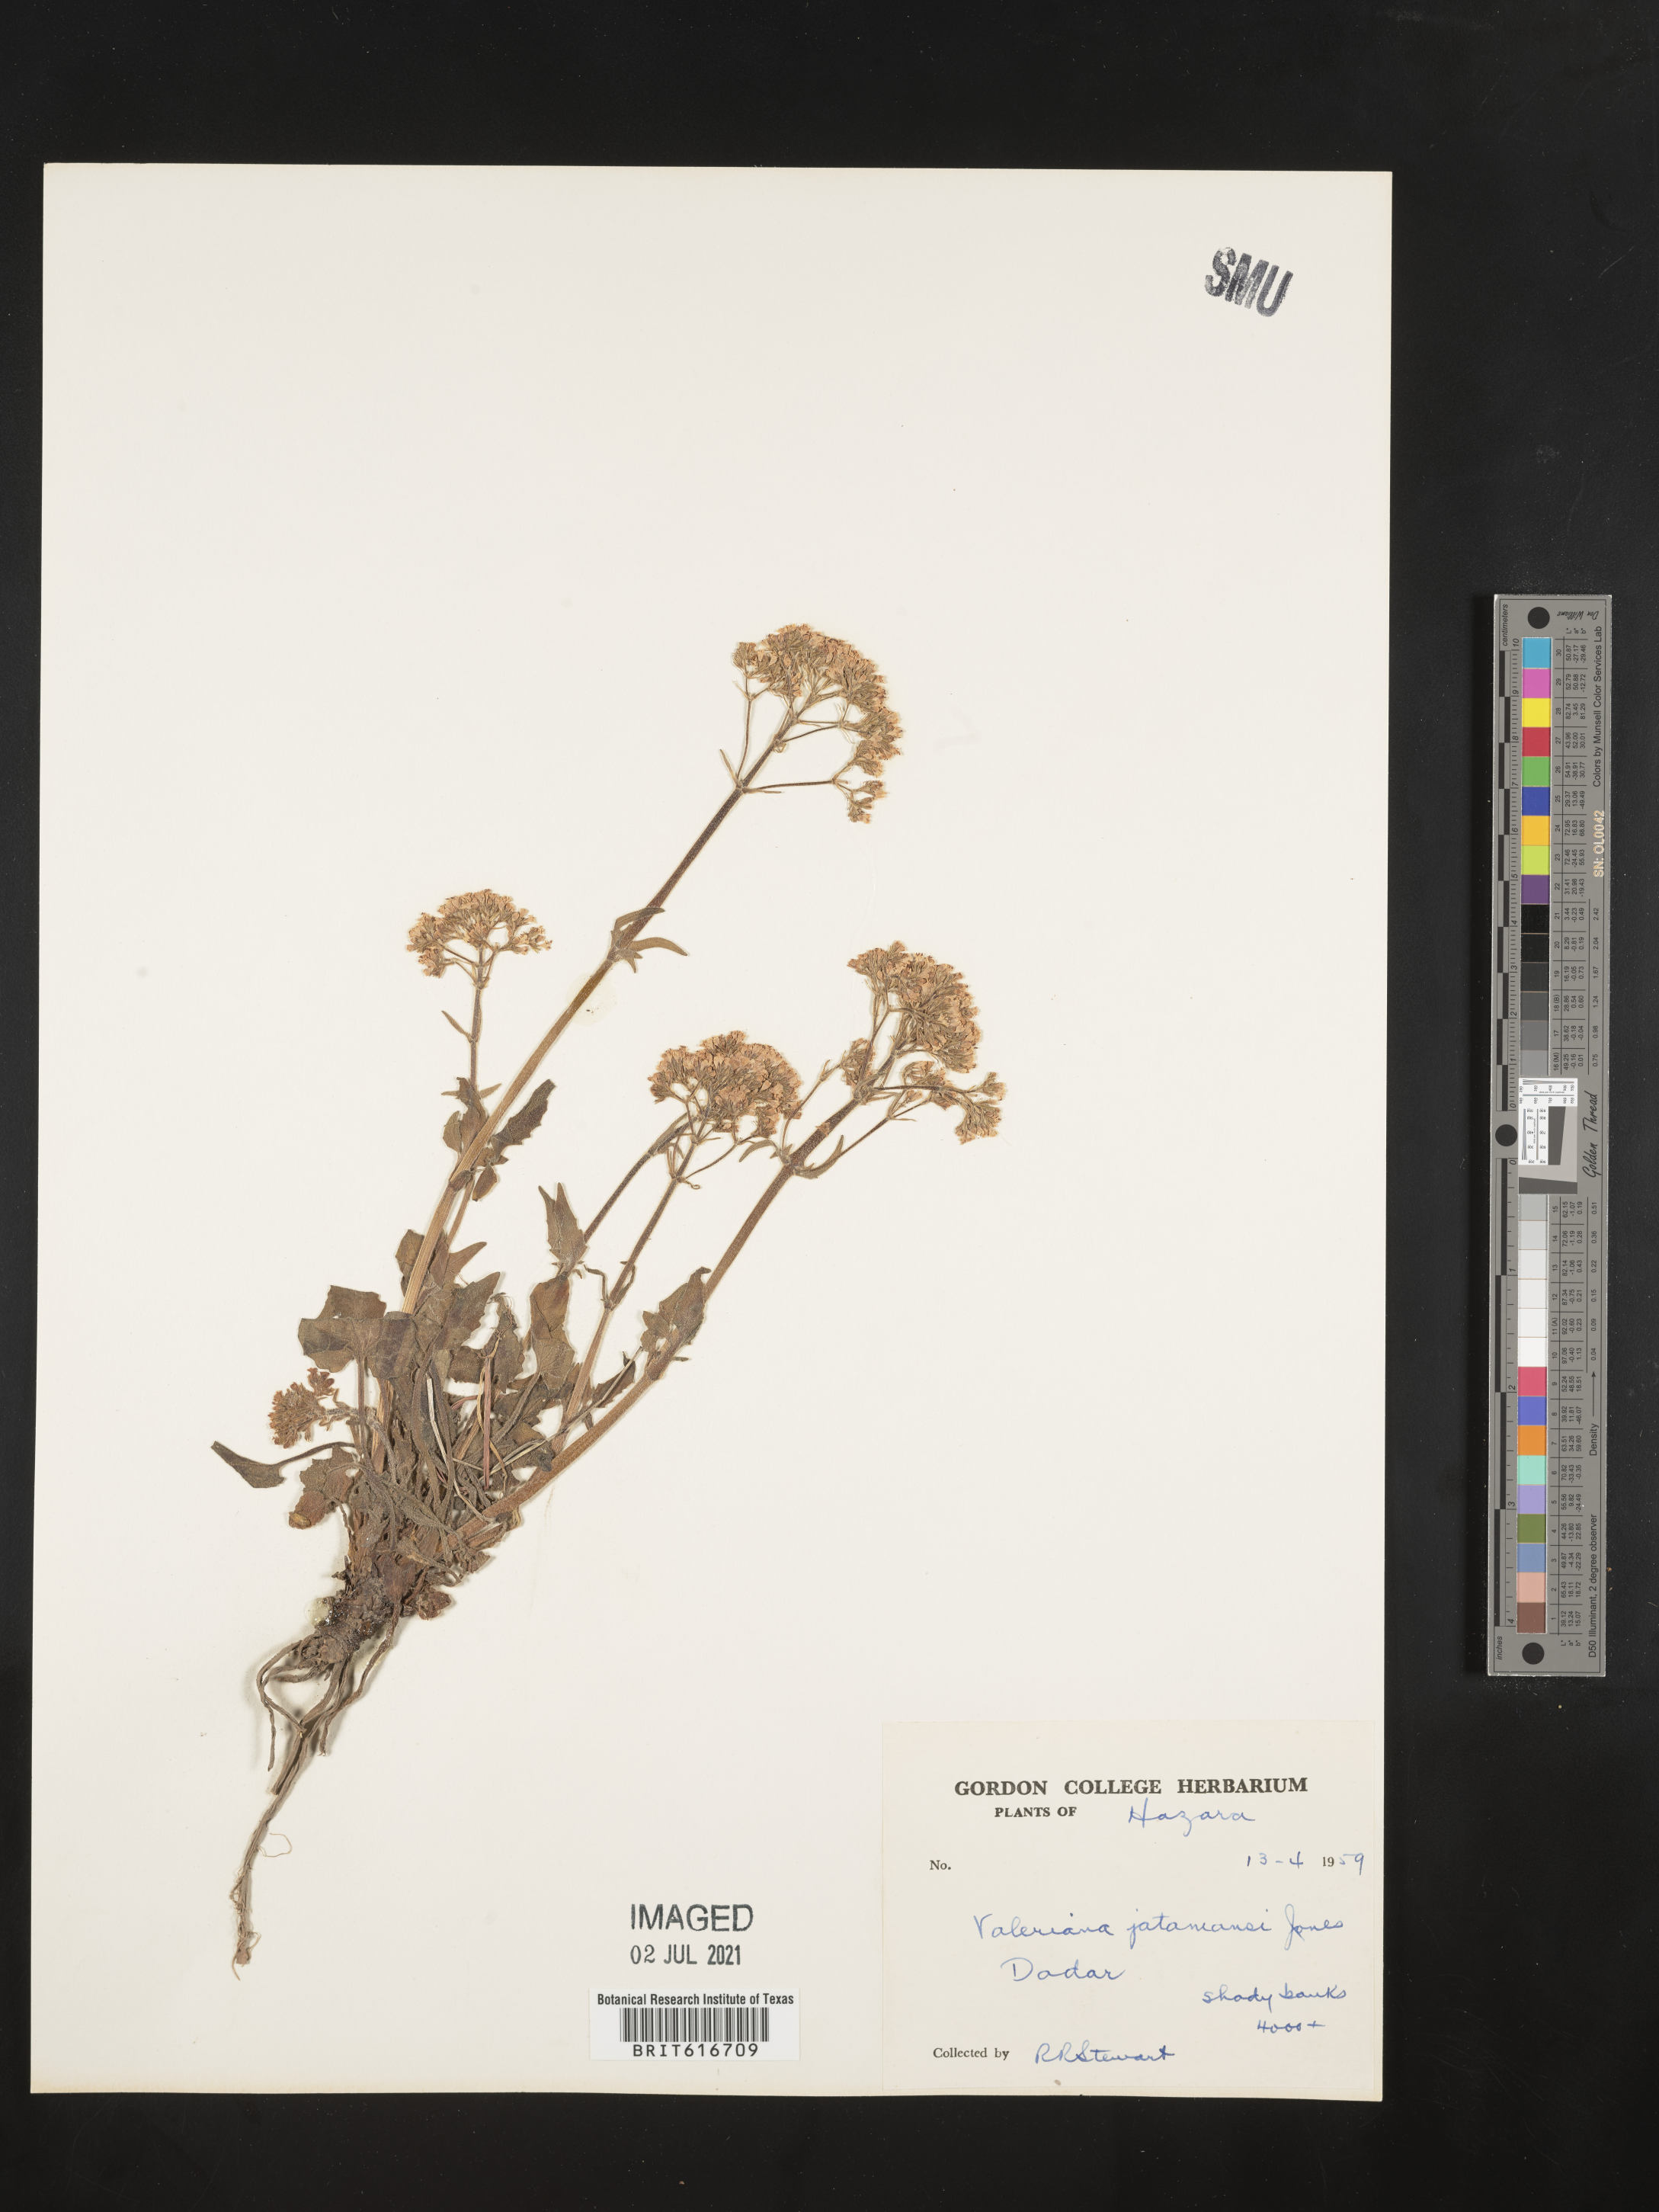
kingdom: Plantae
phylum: Tracheophyta
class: Magnoliopsida
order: Dipsacales
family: Caprifoliaceae
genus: Valeriana
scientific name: Valeriana jatamansi
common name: Indian valerian
